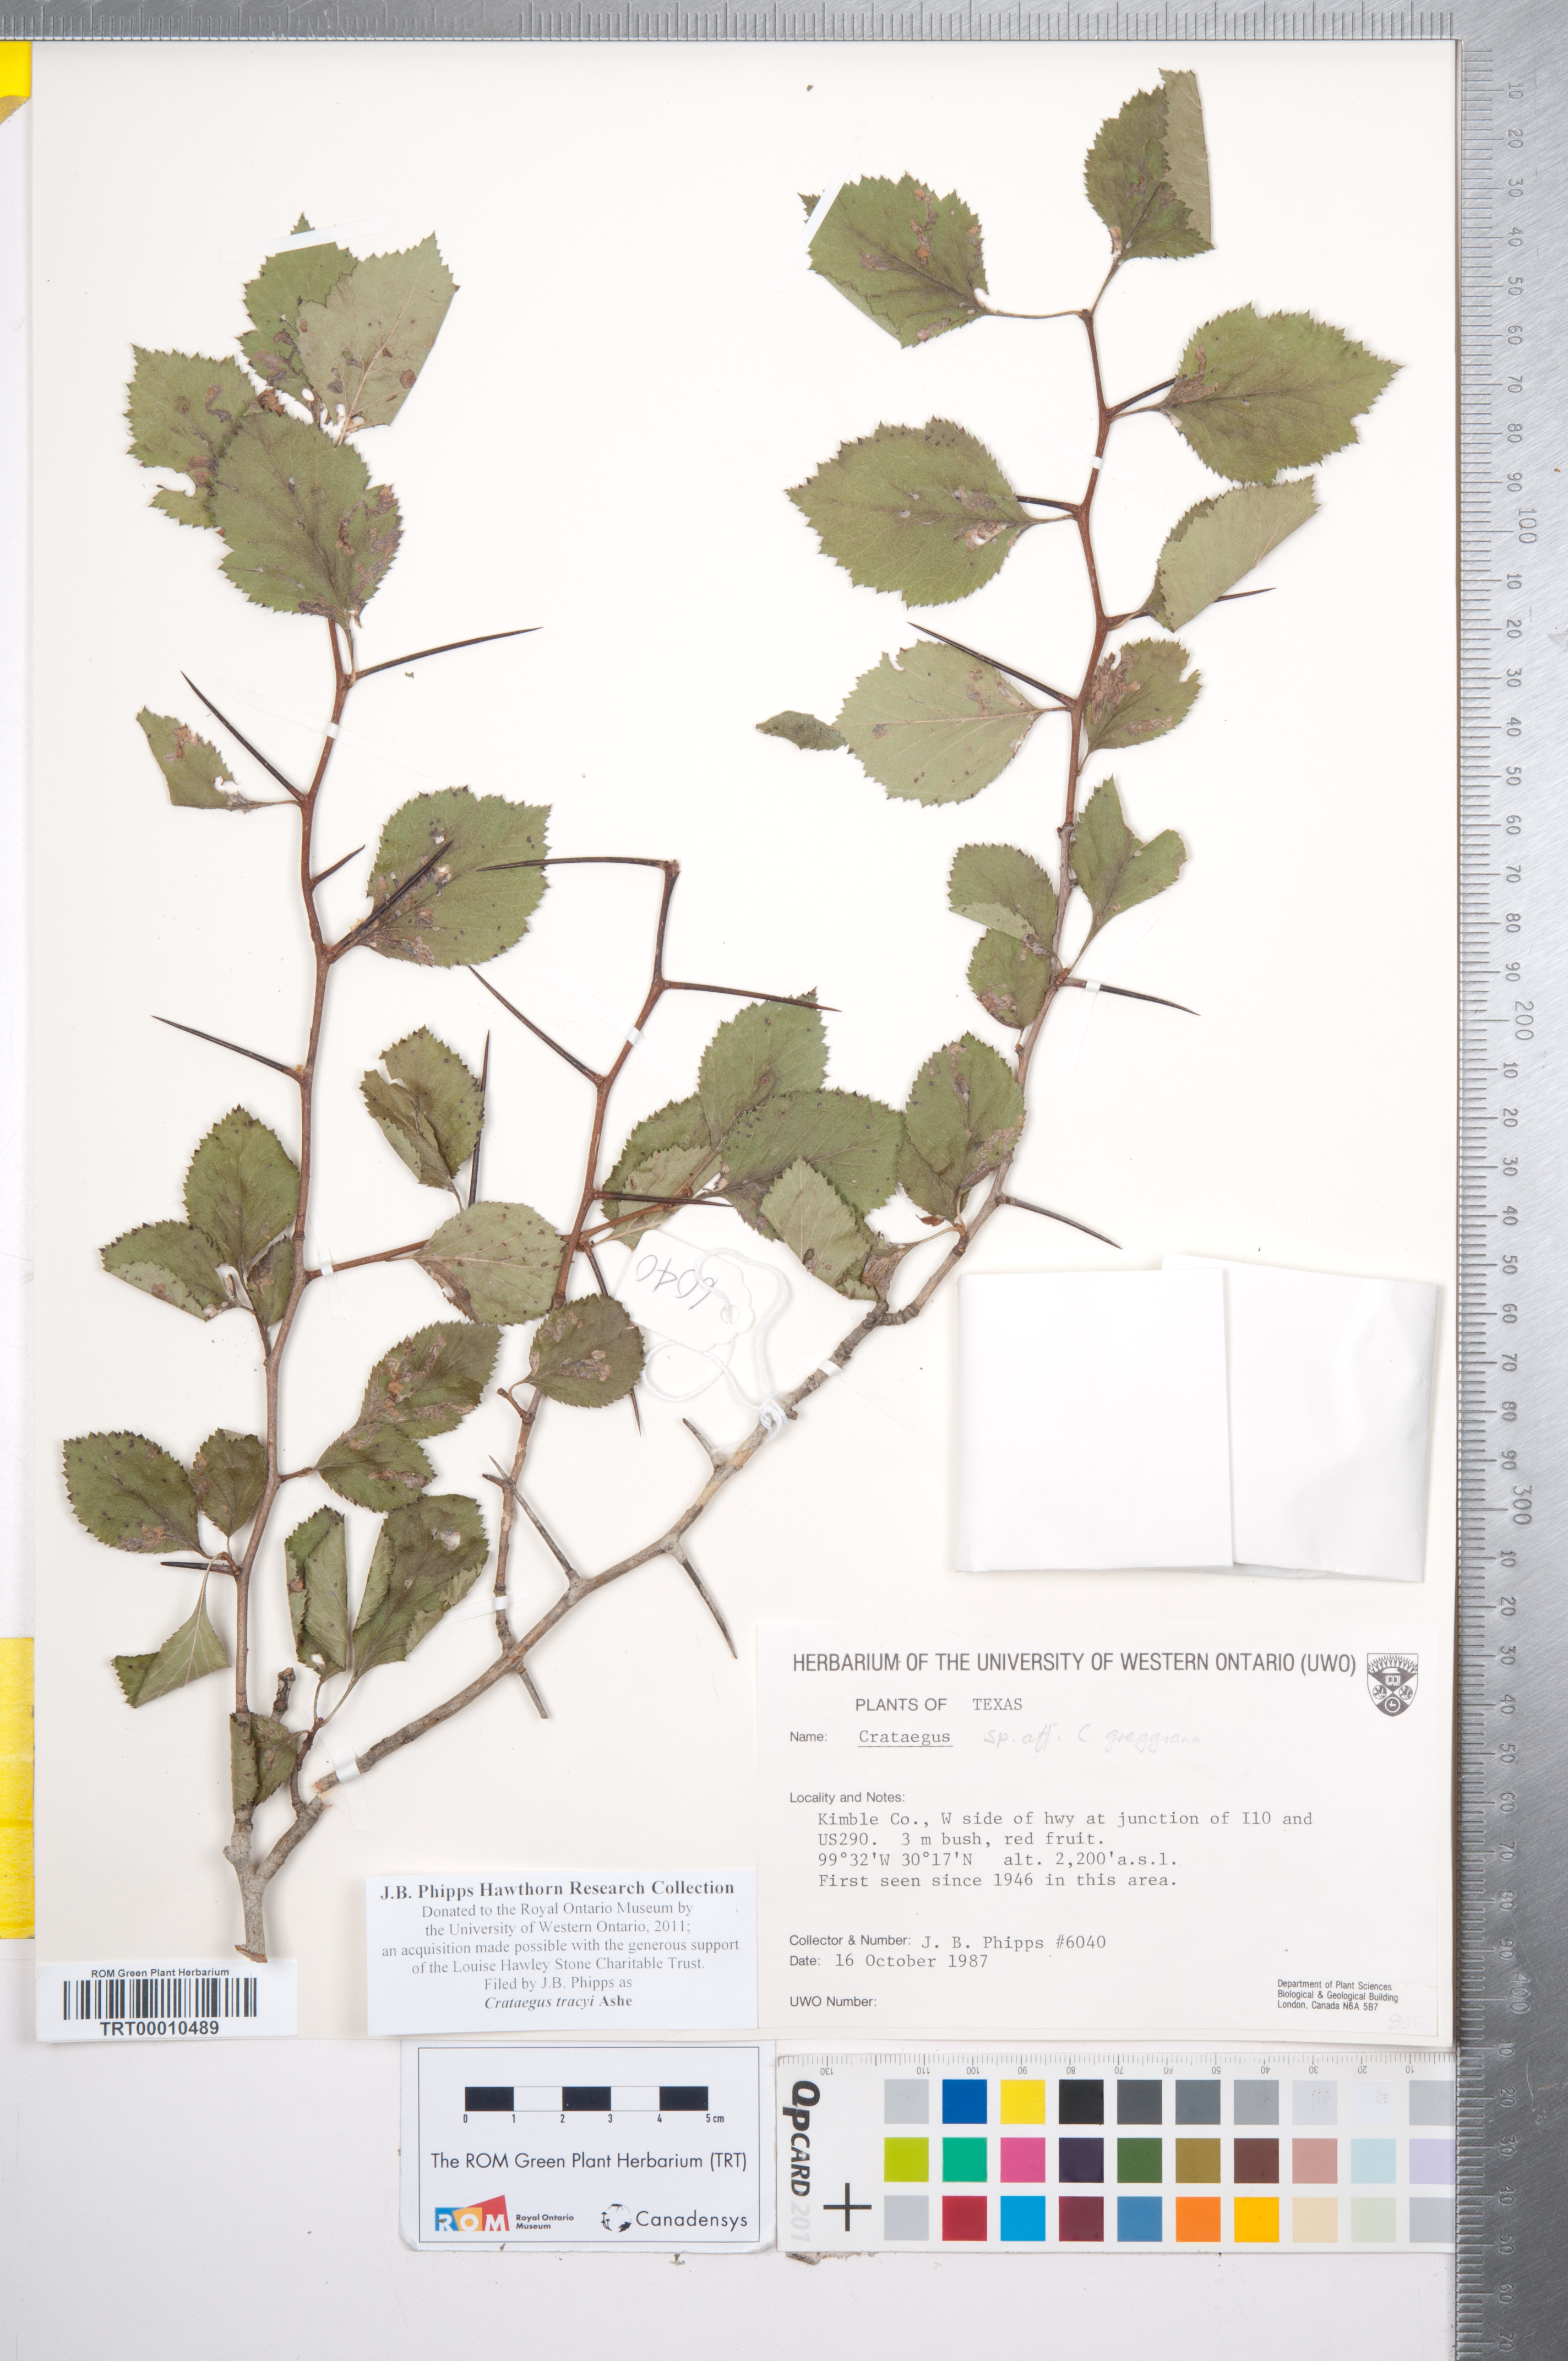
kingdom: Plantae
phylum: Tracheophyta
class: Magnoliopsida
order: Rosales
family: Rosaceae
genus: Crataegus
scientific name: Crataegus tracyi
